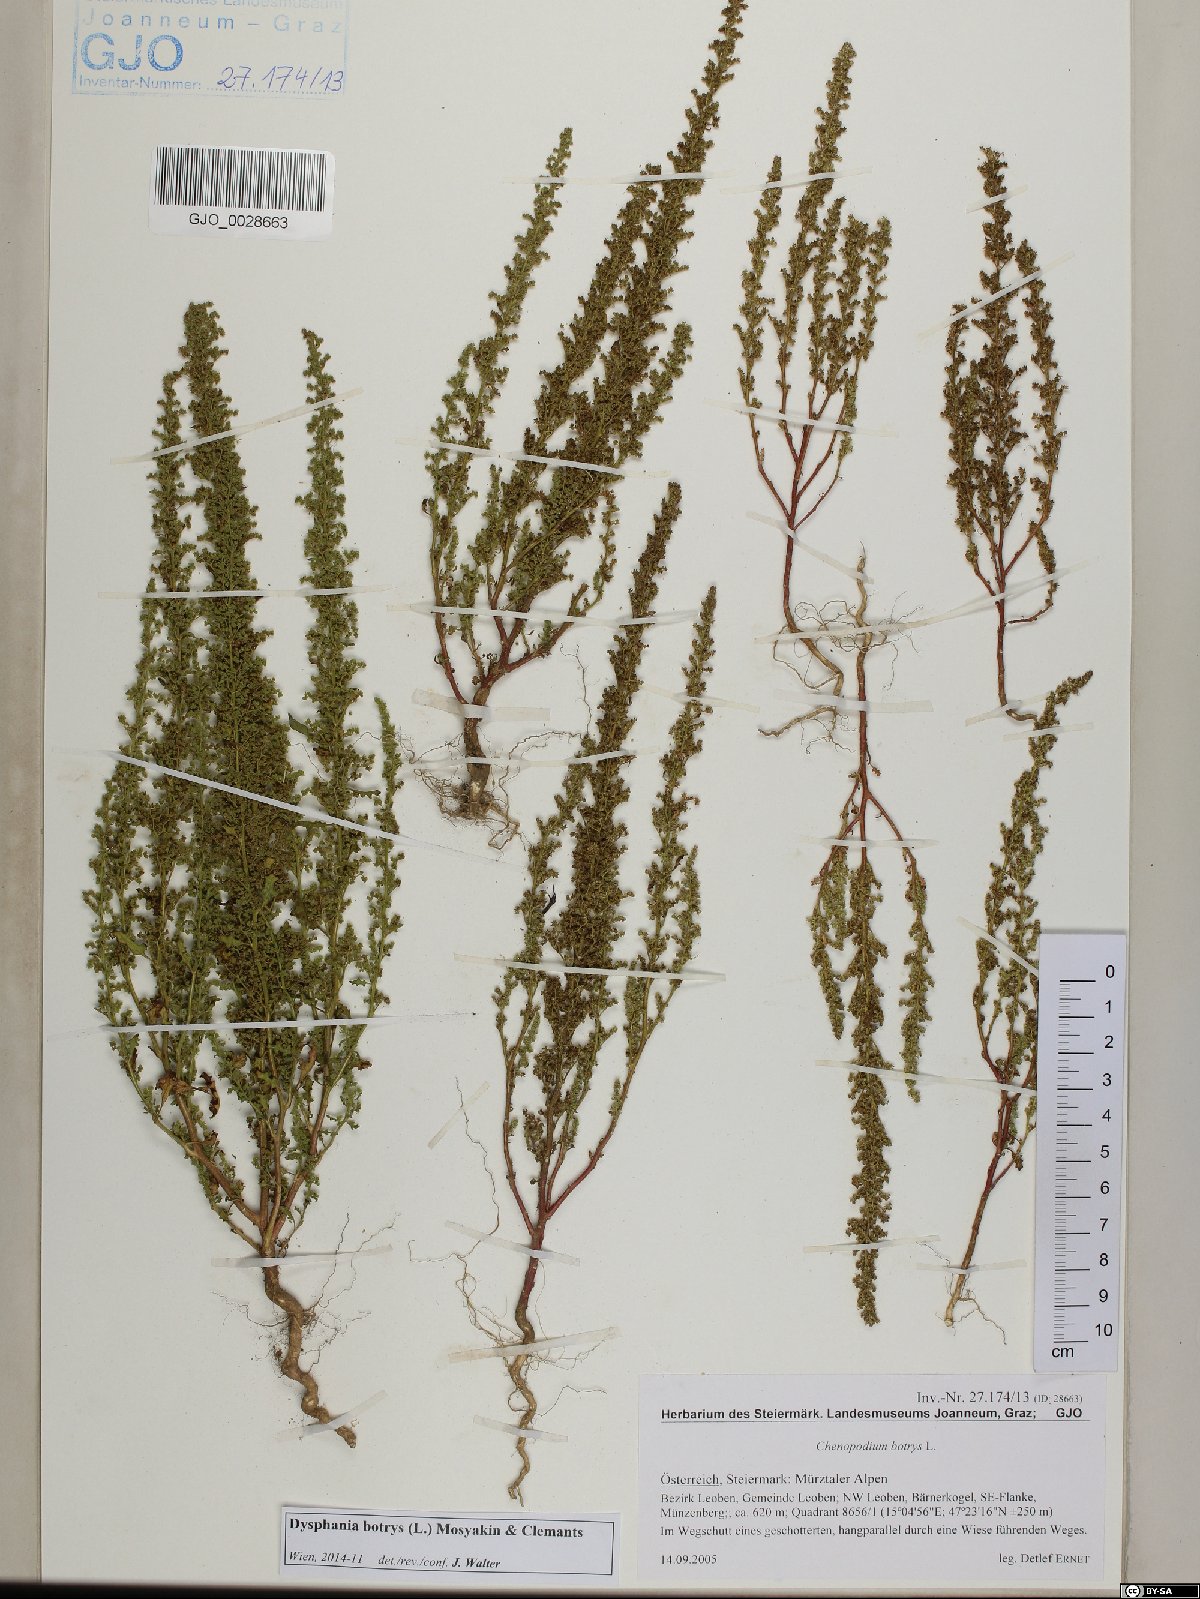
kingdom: Plantae
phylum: Tracheophyta
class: Magnoliopsida
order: Caryophyllales
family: Amaranthaceae
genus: Dysphania
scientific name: Dysphania botrys
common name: Feather-geranium
